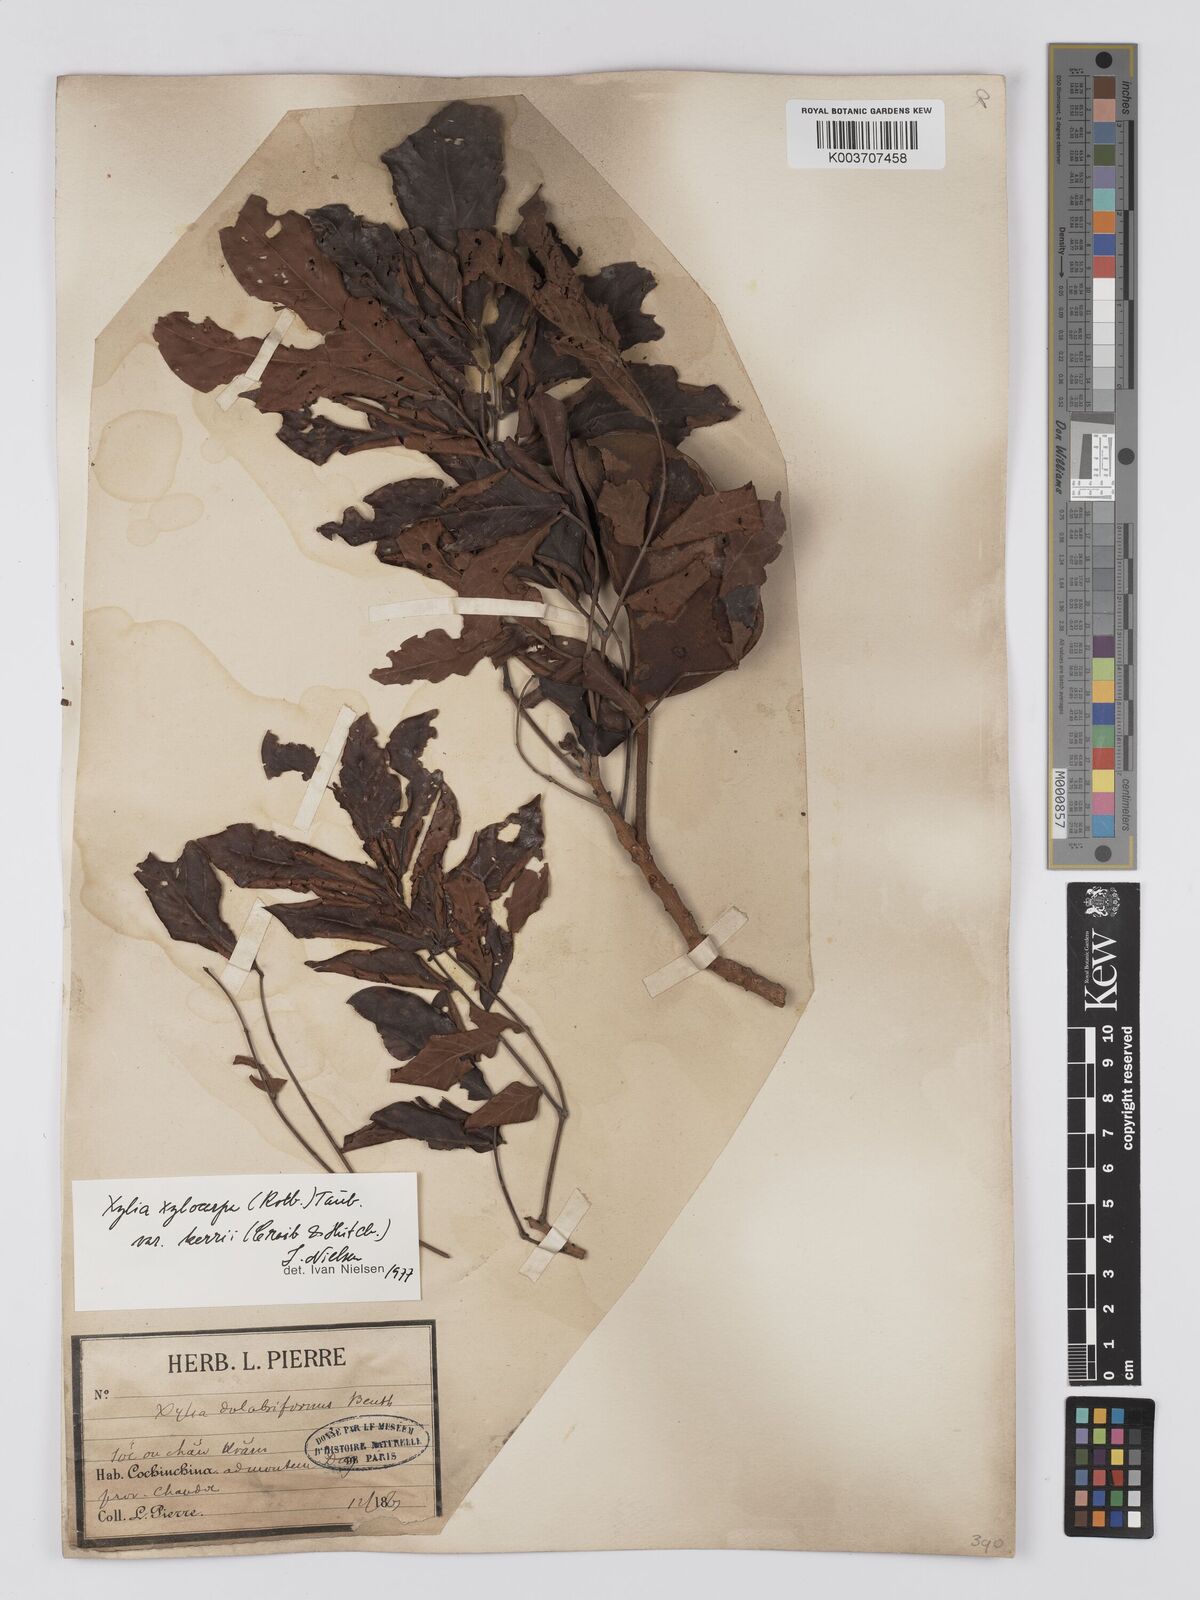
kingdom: Plantae
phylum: Tracheophyta
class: Magnoliopsida
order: Fabales
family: Fabaceae
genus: Xylia
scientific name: Xylia xylocarpa
